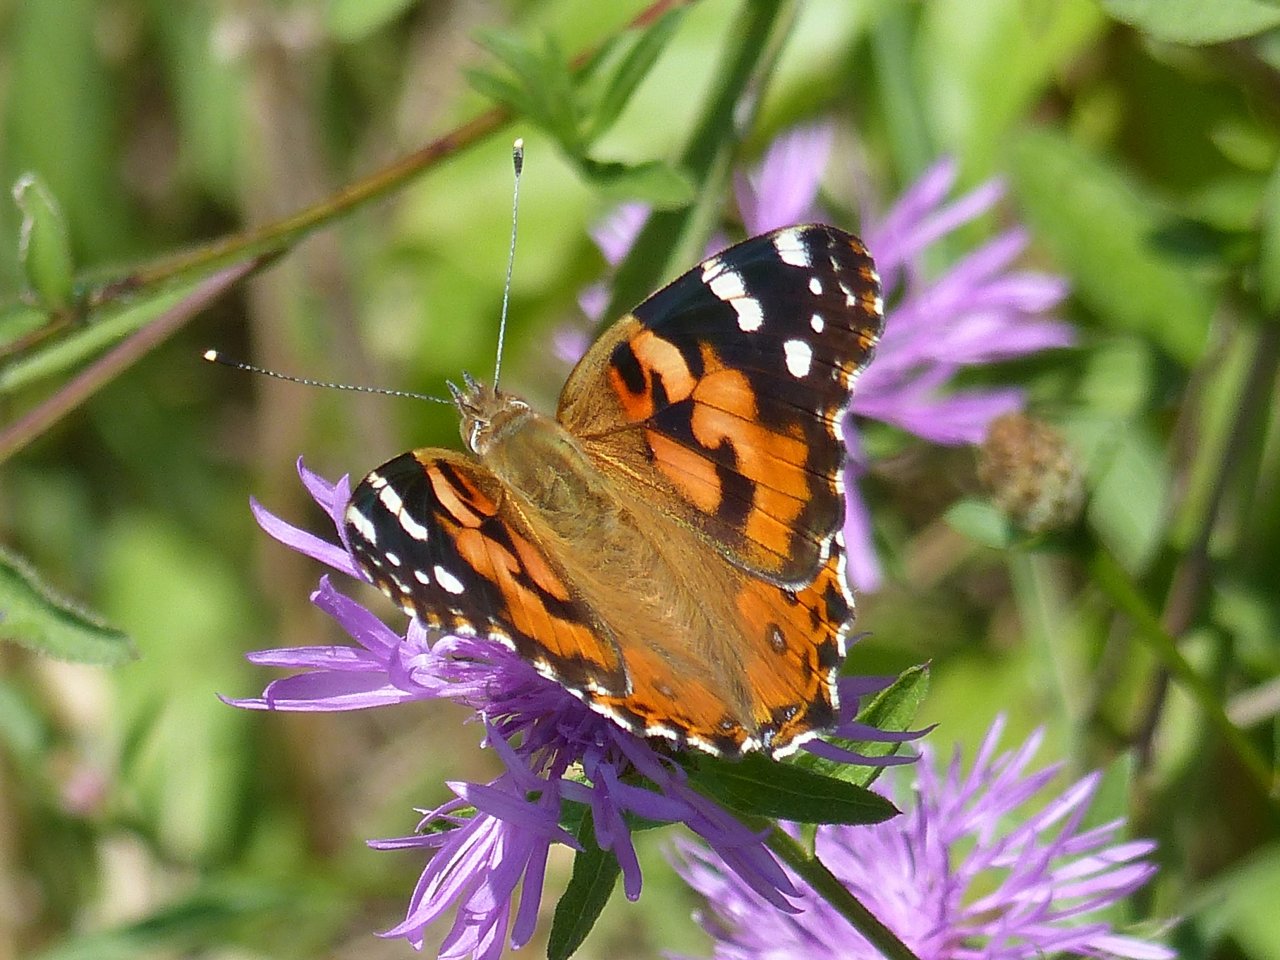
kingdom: Animalia
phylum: Arthropoda
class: Insecta
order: Lepidoptera
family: Nymphalidae
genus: Vanessa
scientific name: Vanessa cardui
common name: Painted Lady
